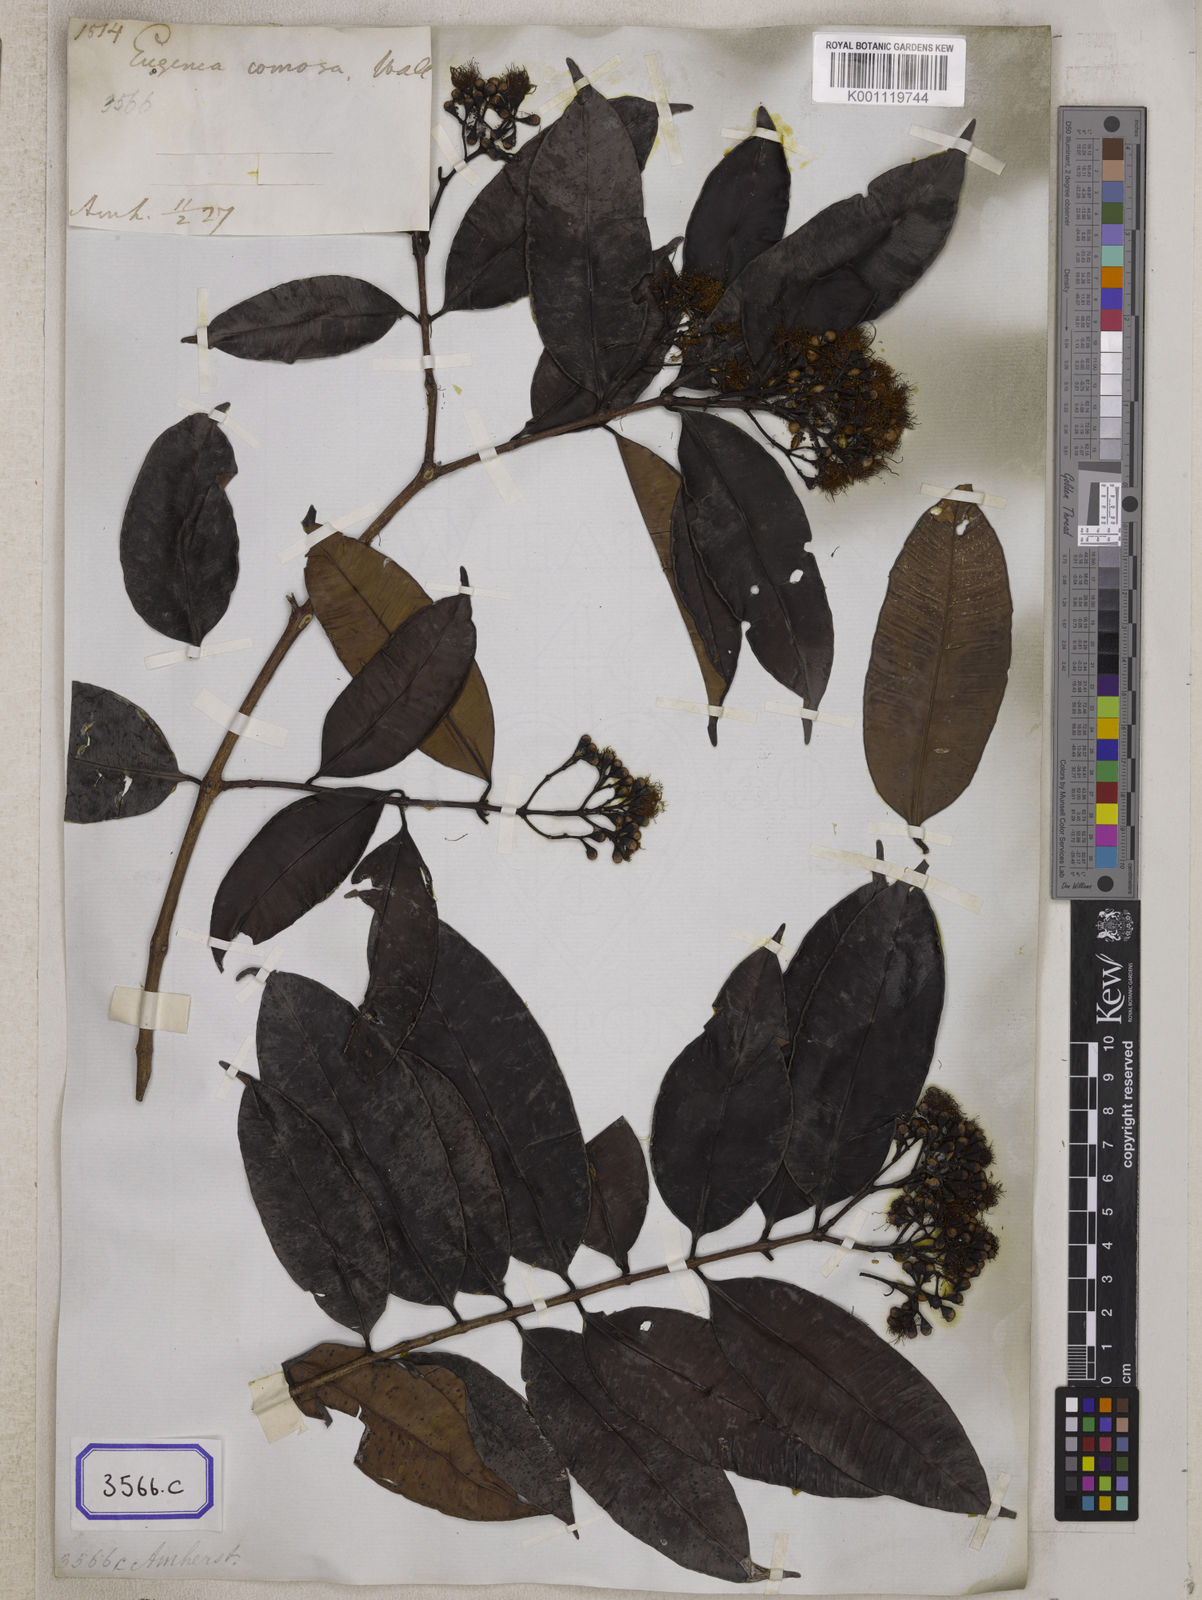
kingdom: Plantae
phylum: Tracheophyta
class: Magnoliopsida
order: Myrtales
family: Myrtaceae
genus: Syzygium
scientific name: Syzygium
